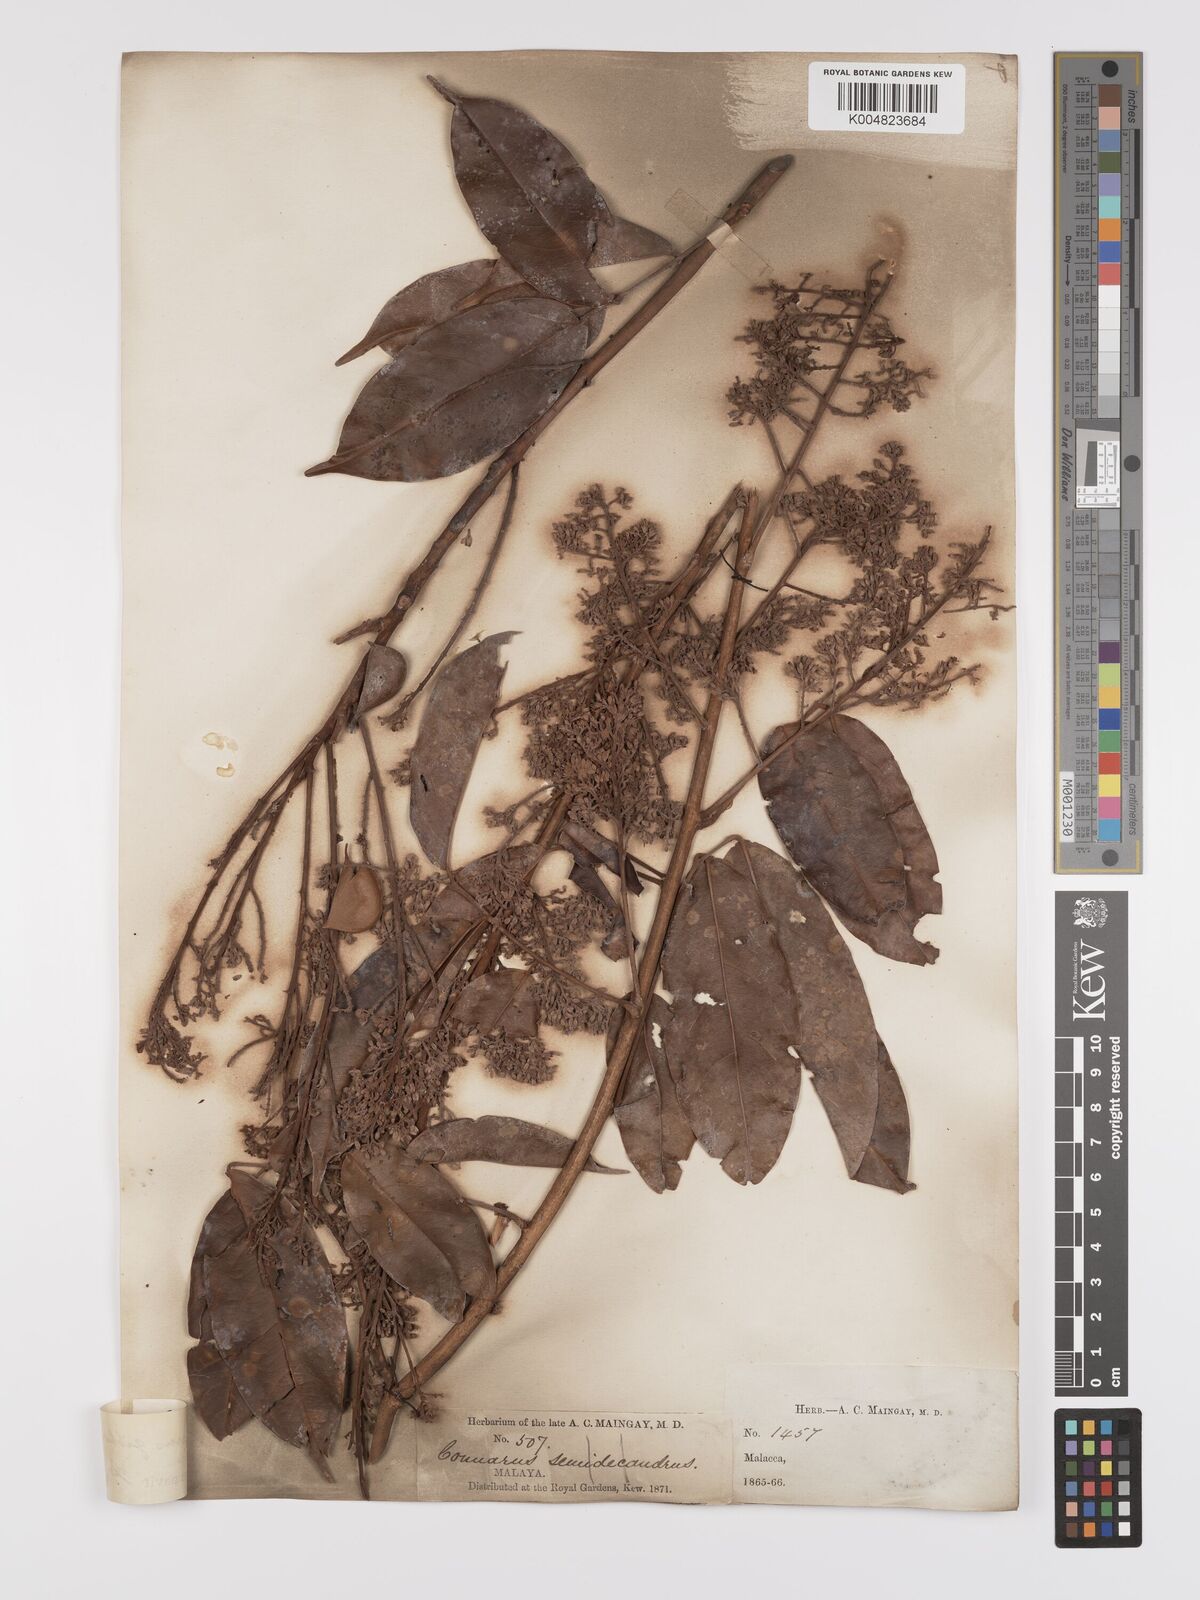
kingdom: Plantae
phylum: Tracheophyta
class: Magnoliopsida
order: Oxalidales
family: Connaraceae
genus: Connarus
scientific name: Connarus semidecandrus
